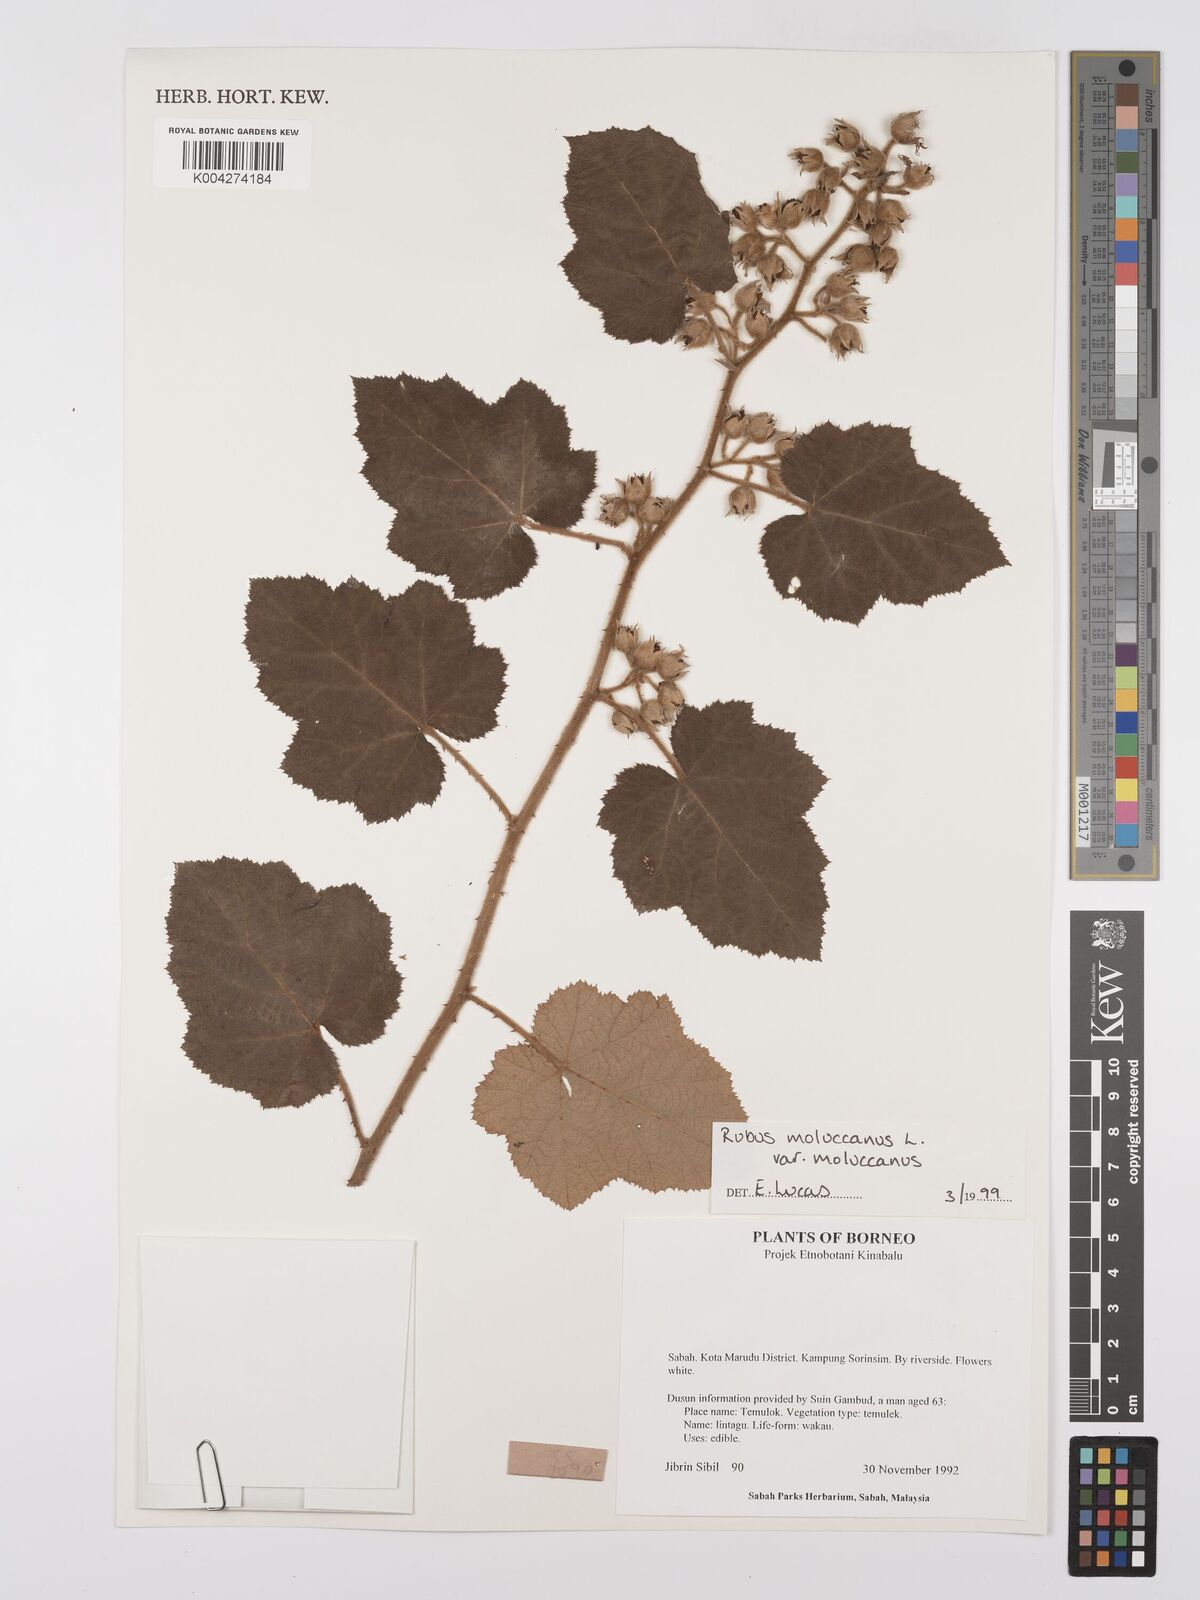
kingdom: Plantae
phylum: Tracheophyta
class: Magnoliopsida
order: Rosales
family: Rosaceae
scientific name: Rosaceae
